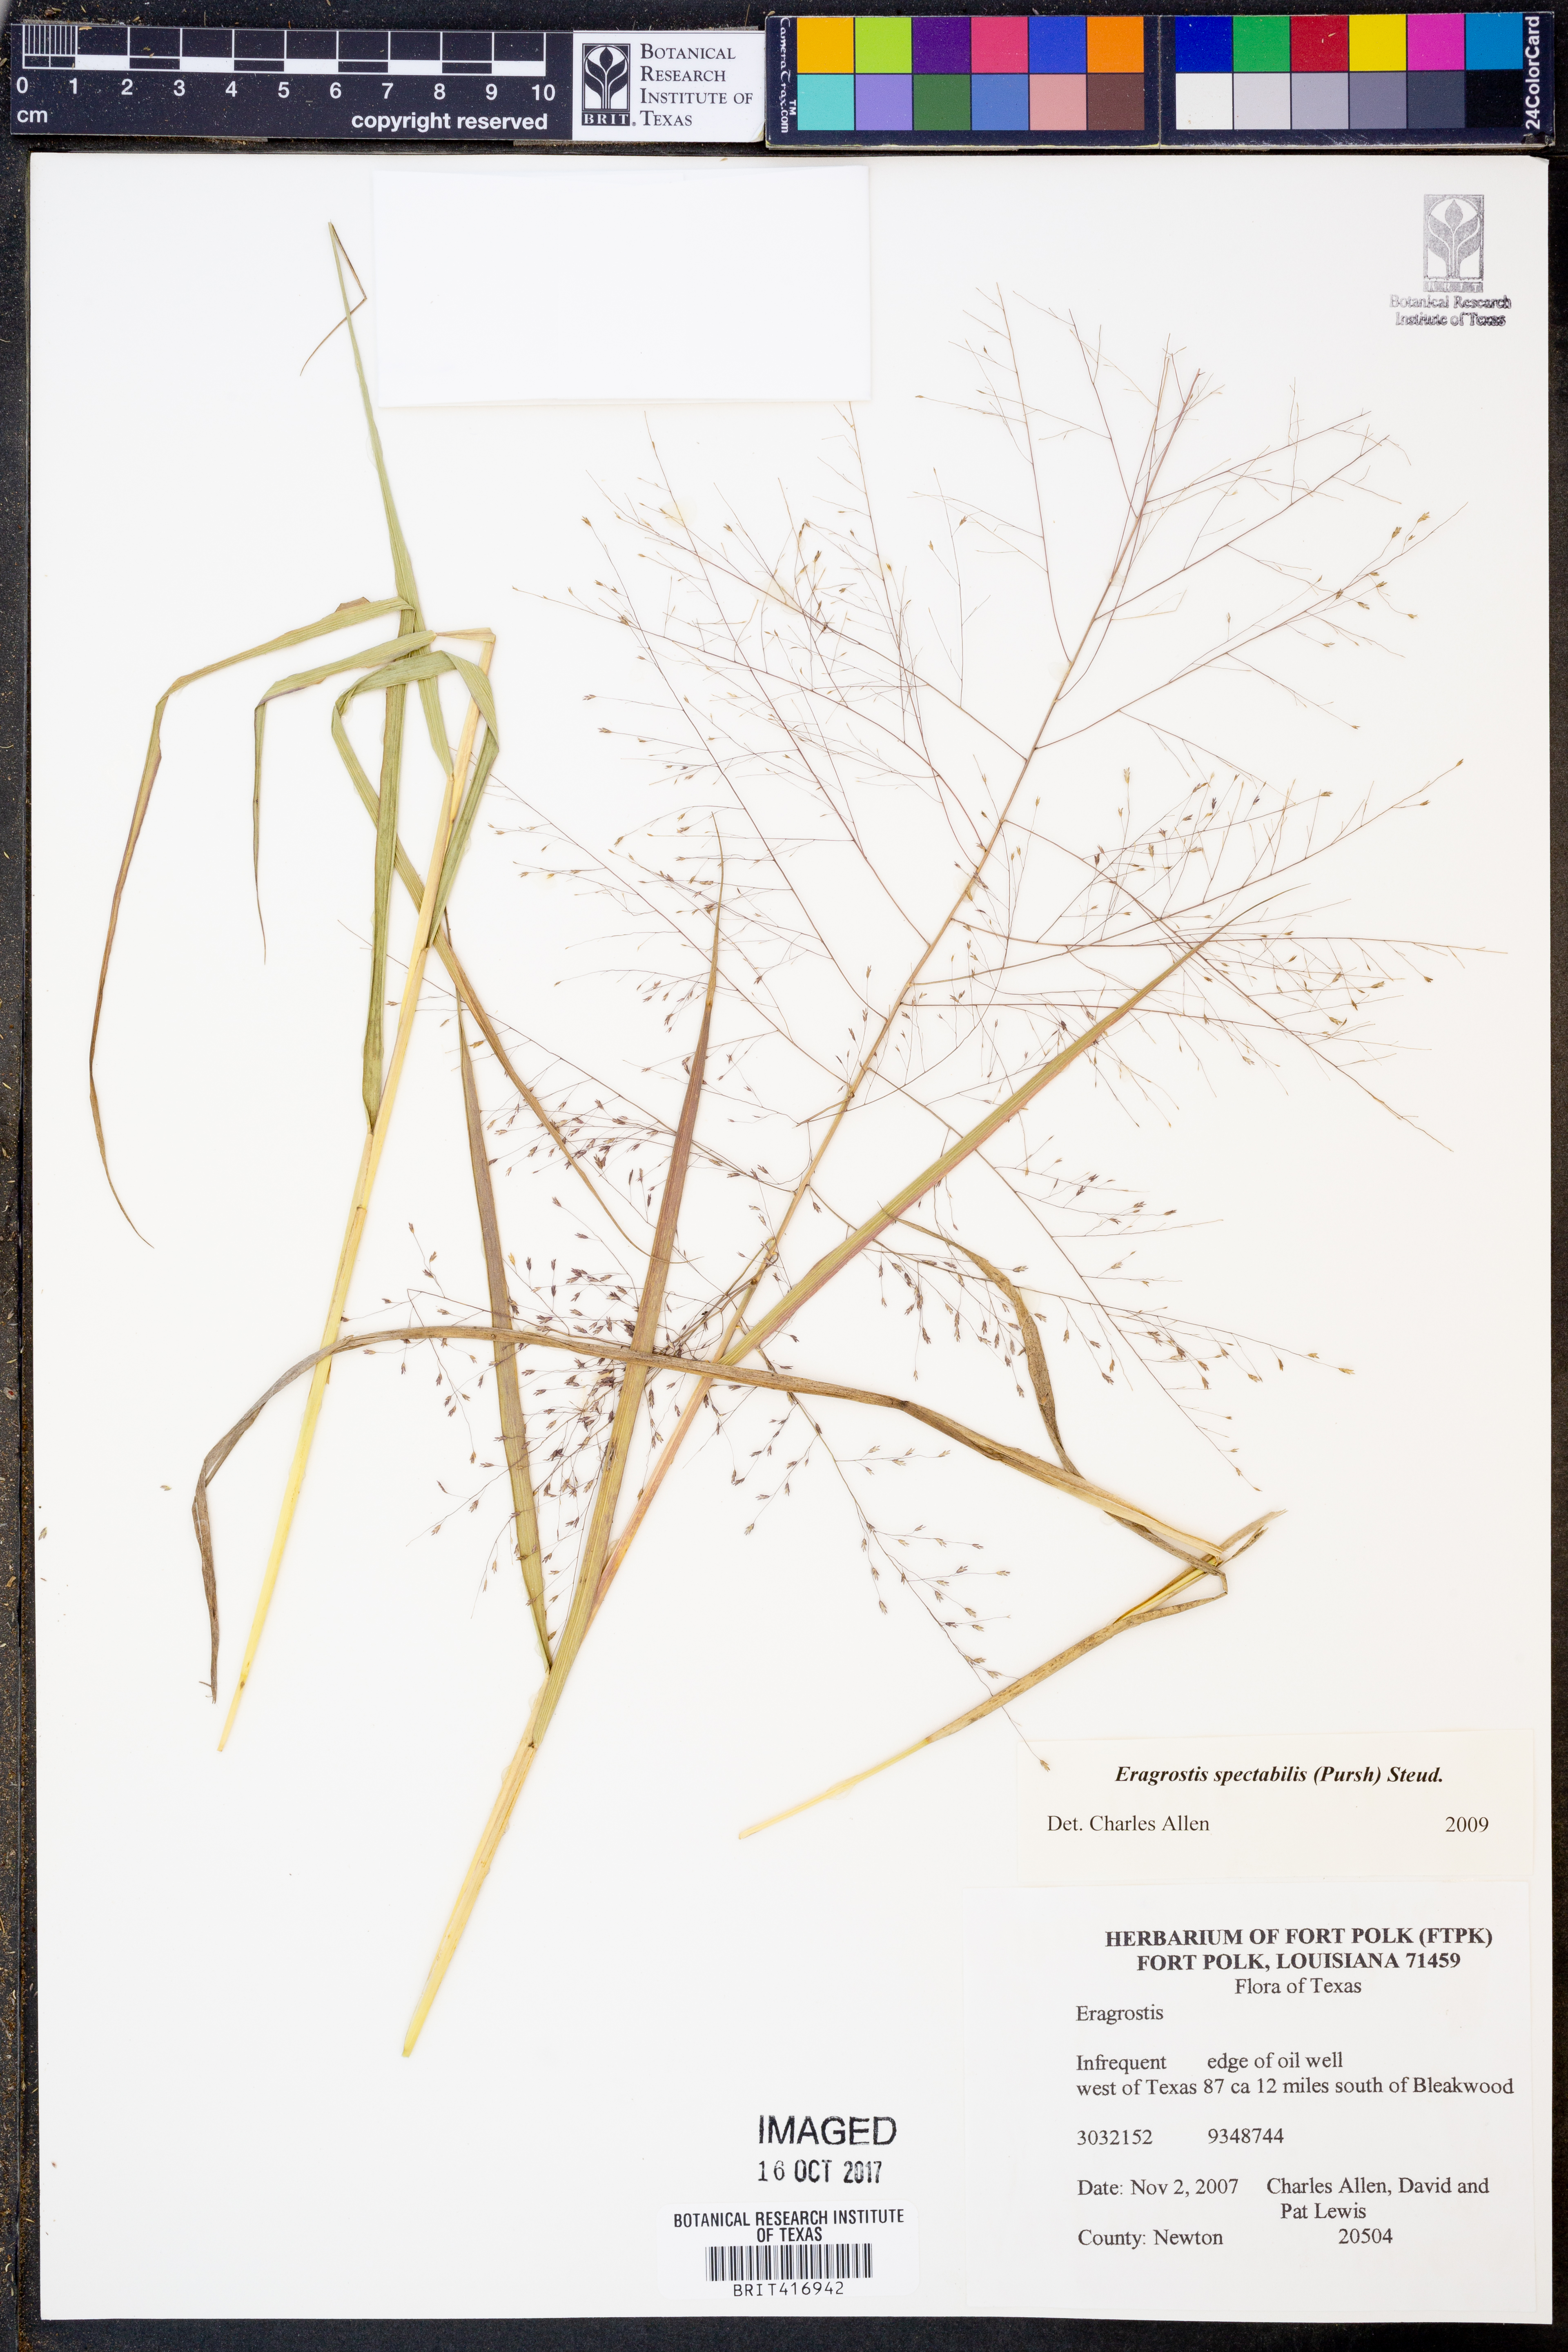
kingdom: Plantae
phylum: Tracheophyta
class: Liliopsida
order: Poales
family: Poaceae
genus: Eragrostis
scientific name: Eragrostis spectabilis
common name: Petticoat-climber
